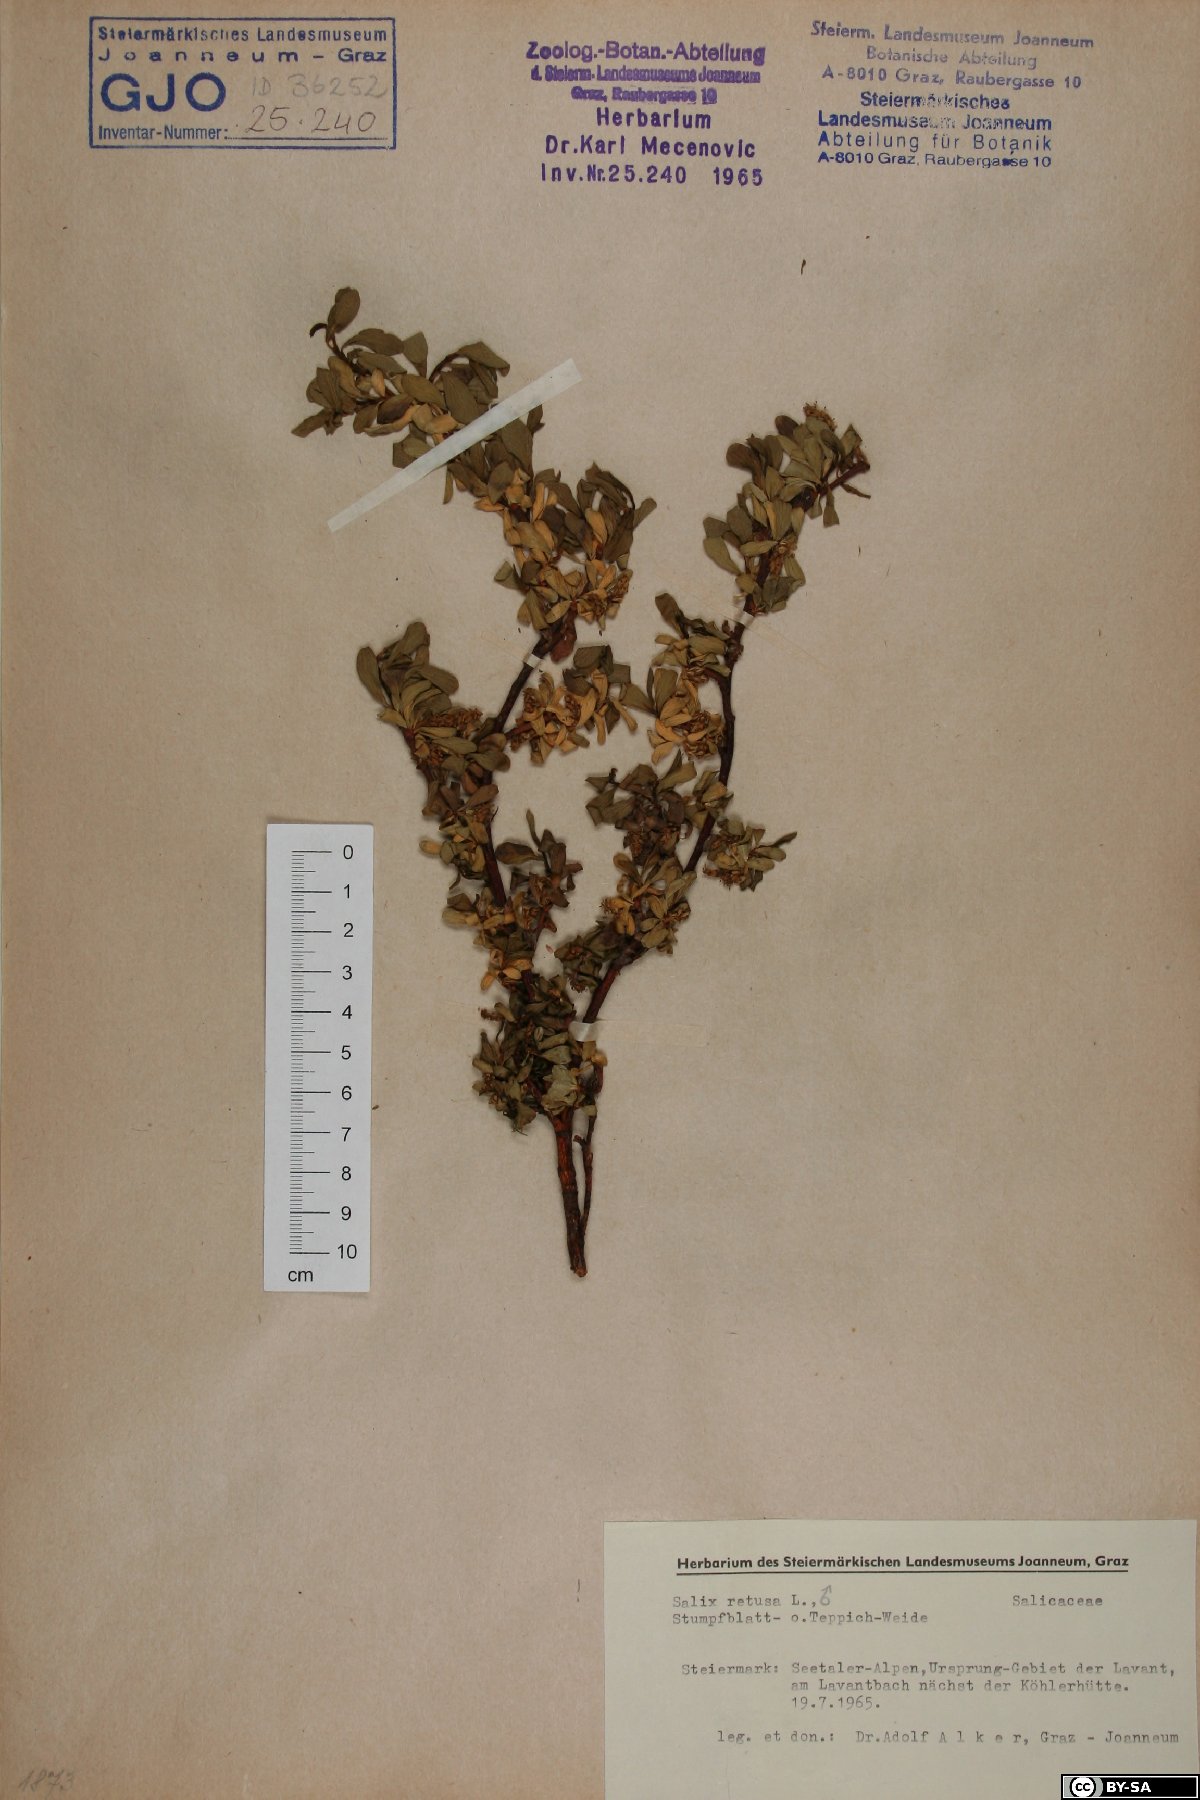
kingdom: Plantae
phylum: Tracheophyta
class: Magnoliopsida
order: Malpighiales
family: Salicaceae
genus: Salix
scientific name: Salix retusa
